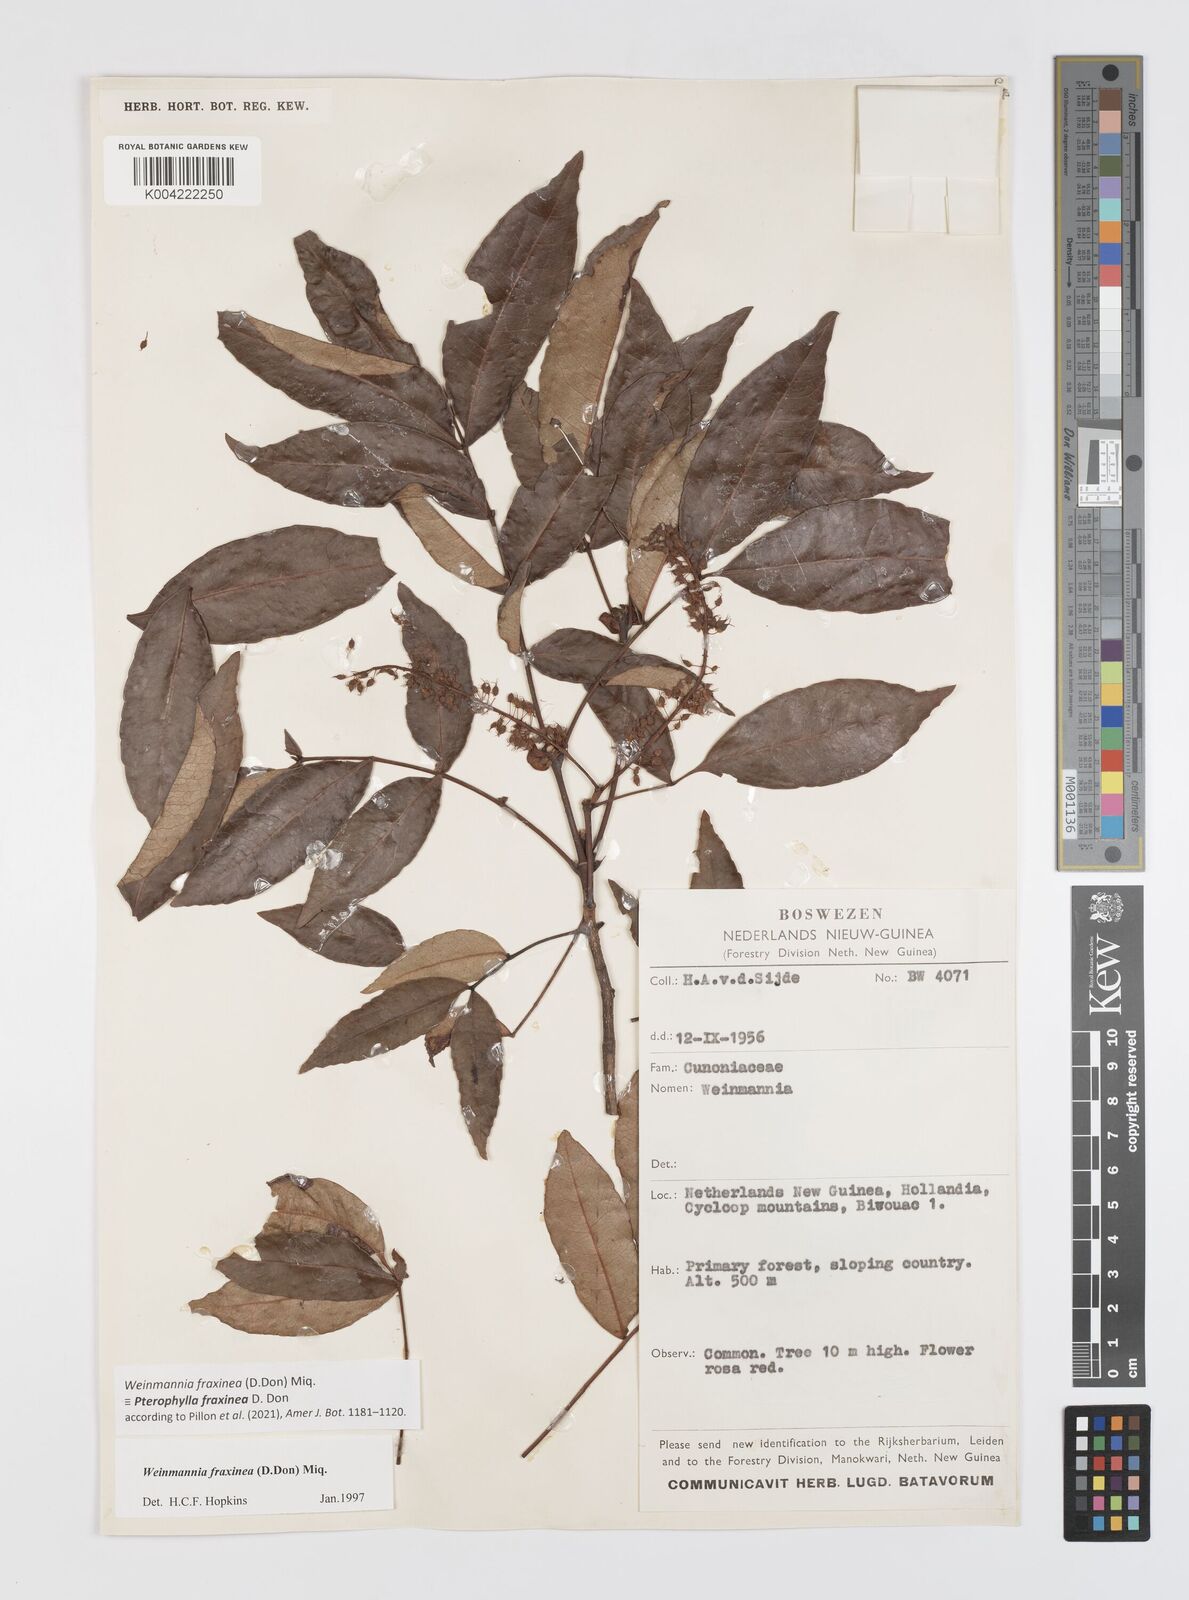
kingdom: Plantae
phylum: Tracheophyta
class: Magnoliopsida
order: Oxalidales
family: Cunoniaceae
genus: Pterophylla
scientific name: Pterophylla fraxinea
